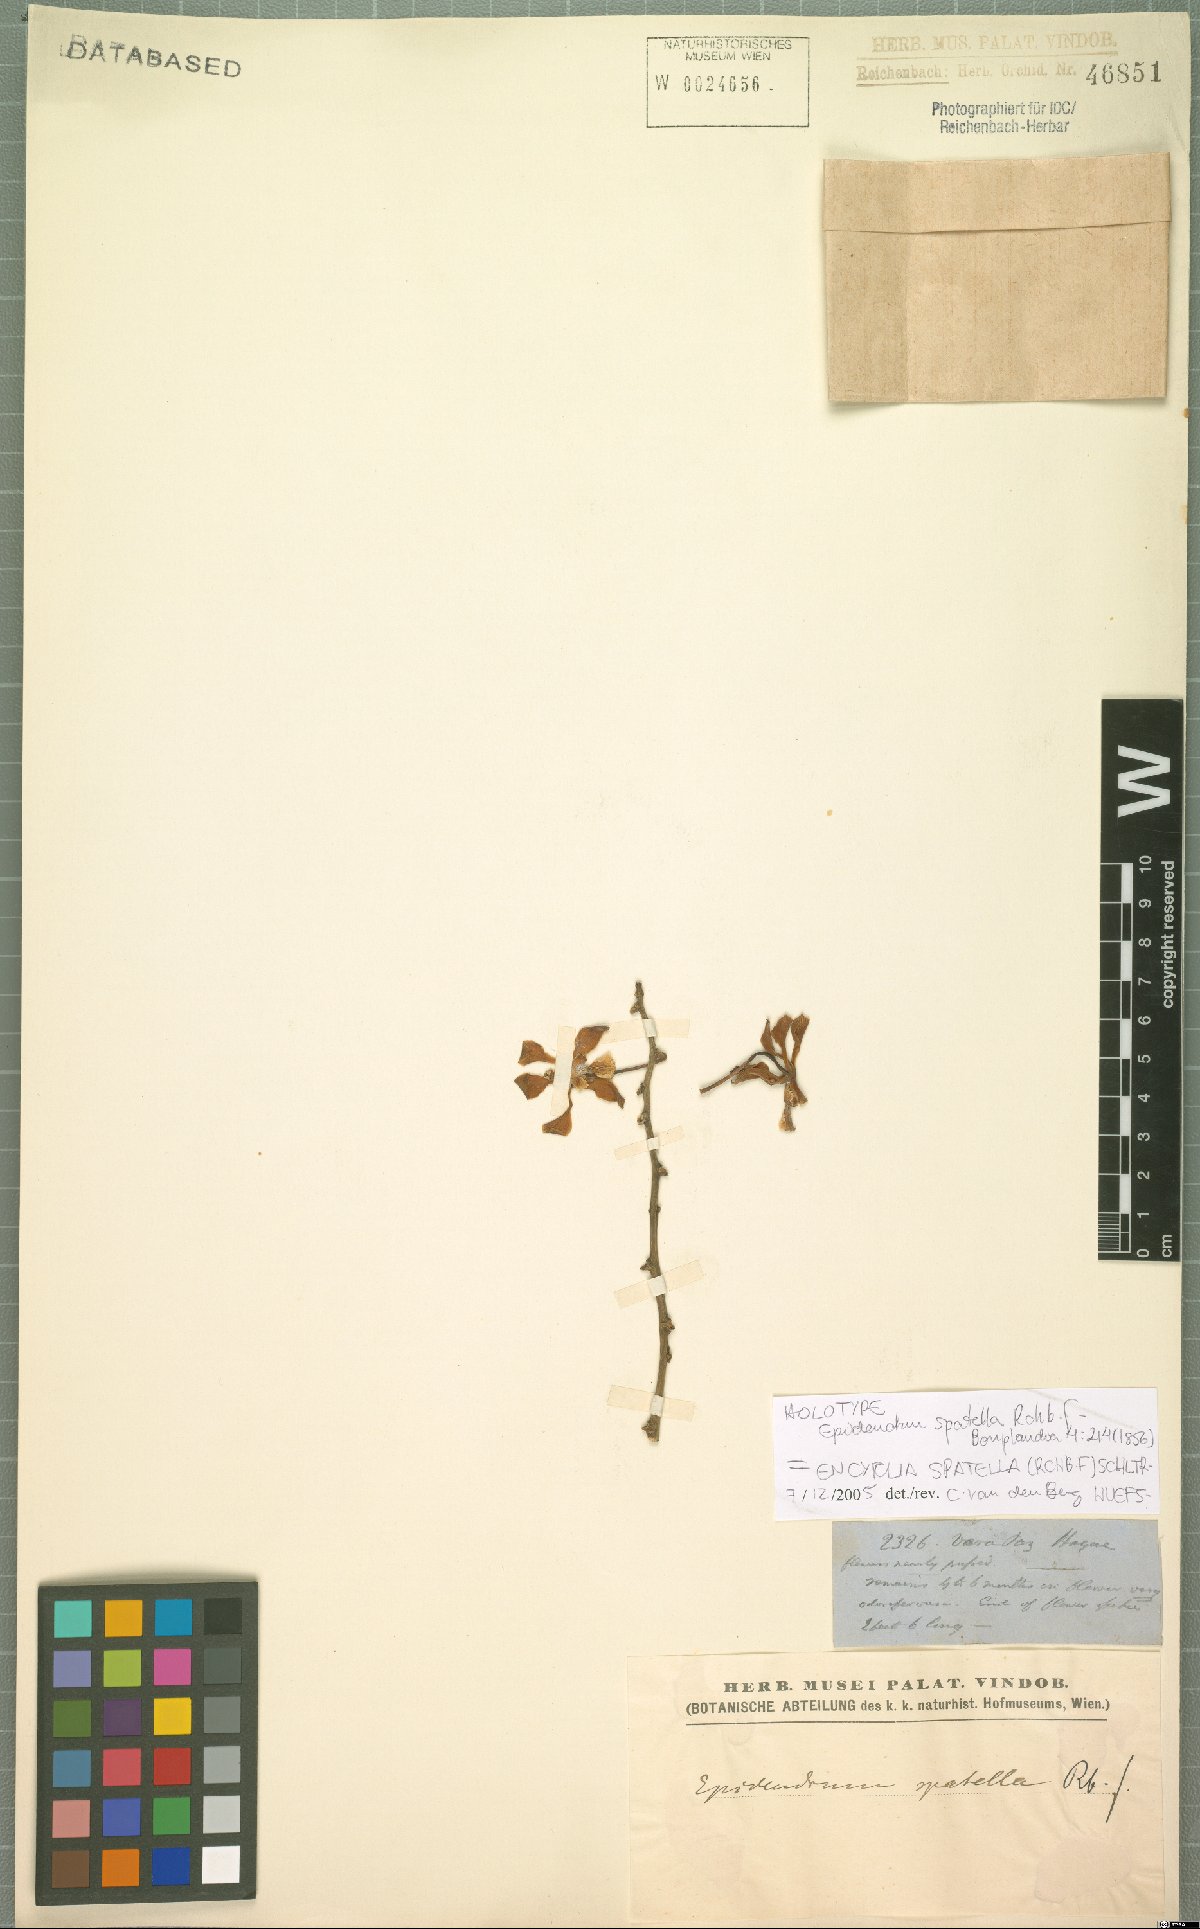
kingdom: Plantae
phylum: Tracheophyta
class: Liliopsida
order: Asparagales
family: Orchidaceae
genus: Encyclia
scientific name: Encyclia spatella
